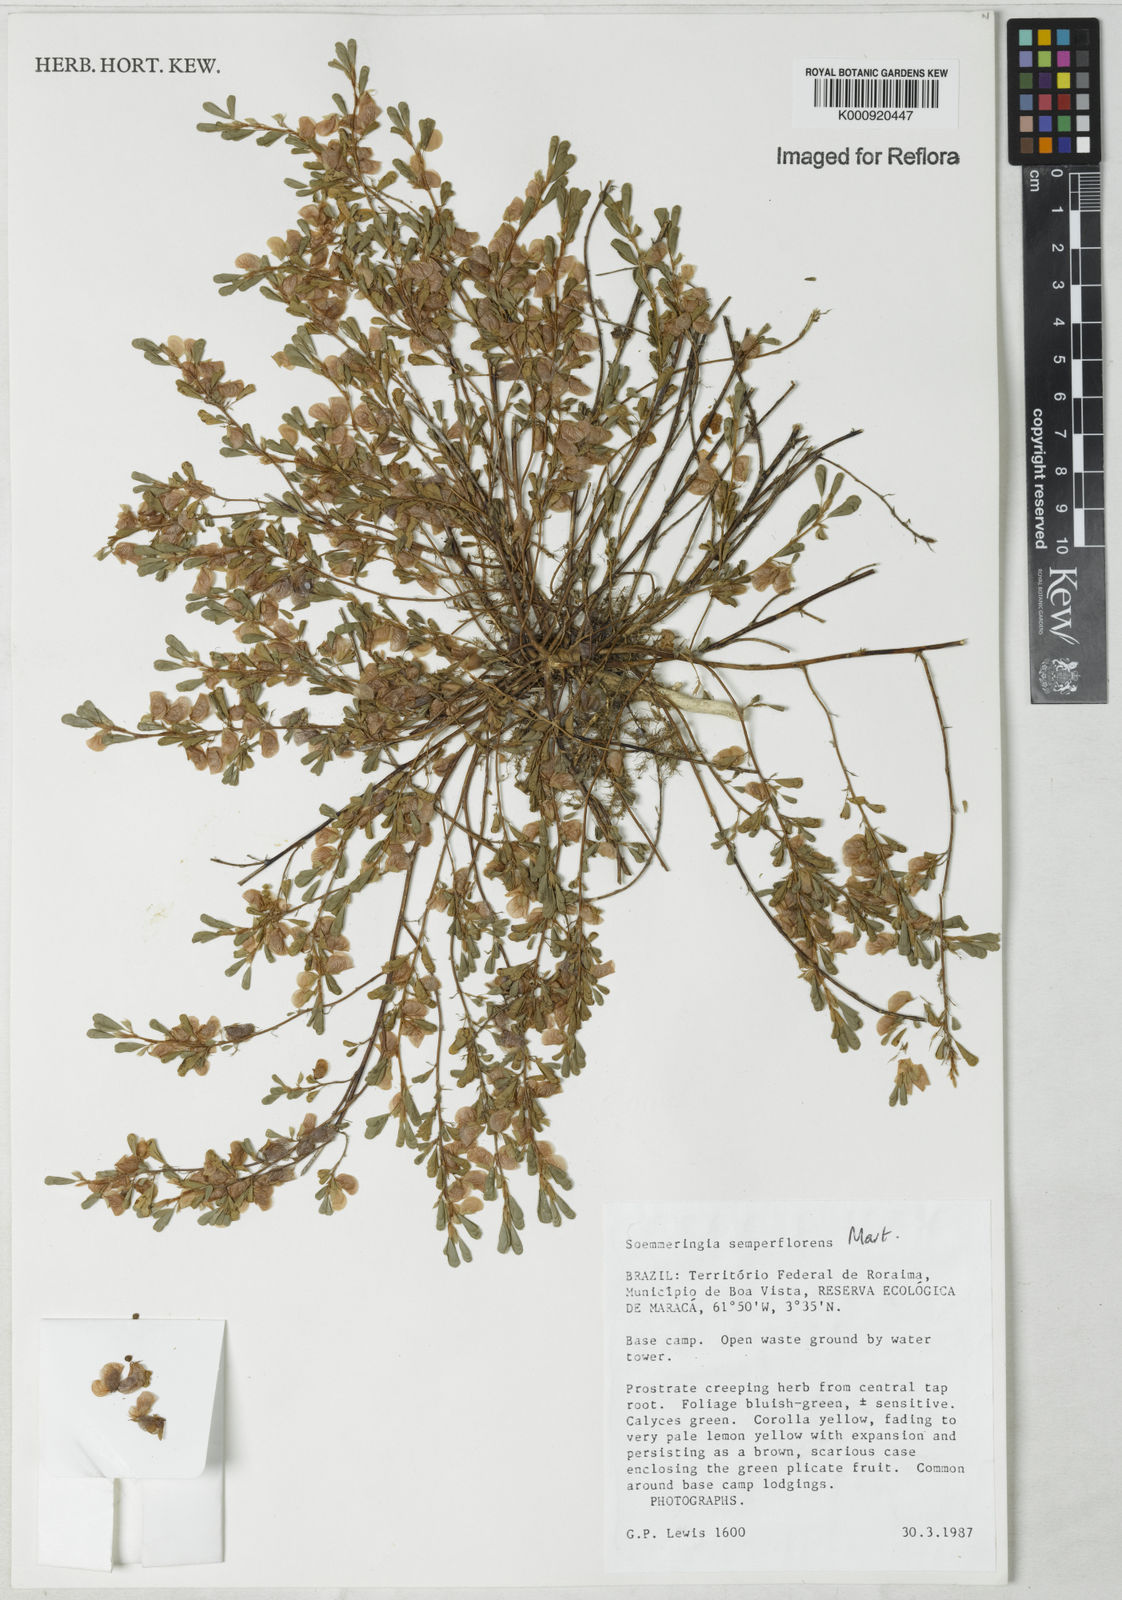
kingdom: Plantae
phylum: Tracheophyta
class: Magnoliopsida
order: Fabales
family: Fabaceae
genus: Soemmeringia
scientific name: Soemmeringia semperflorens
